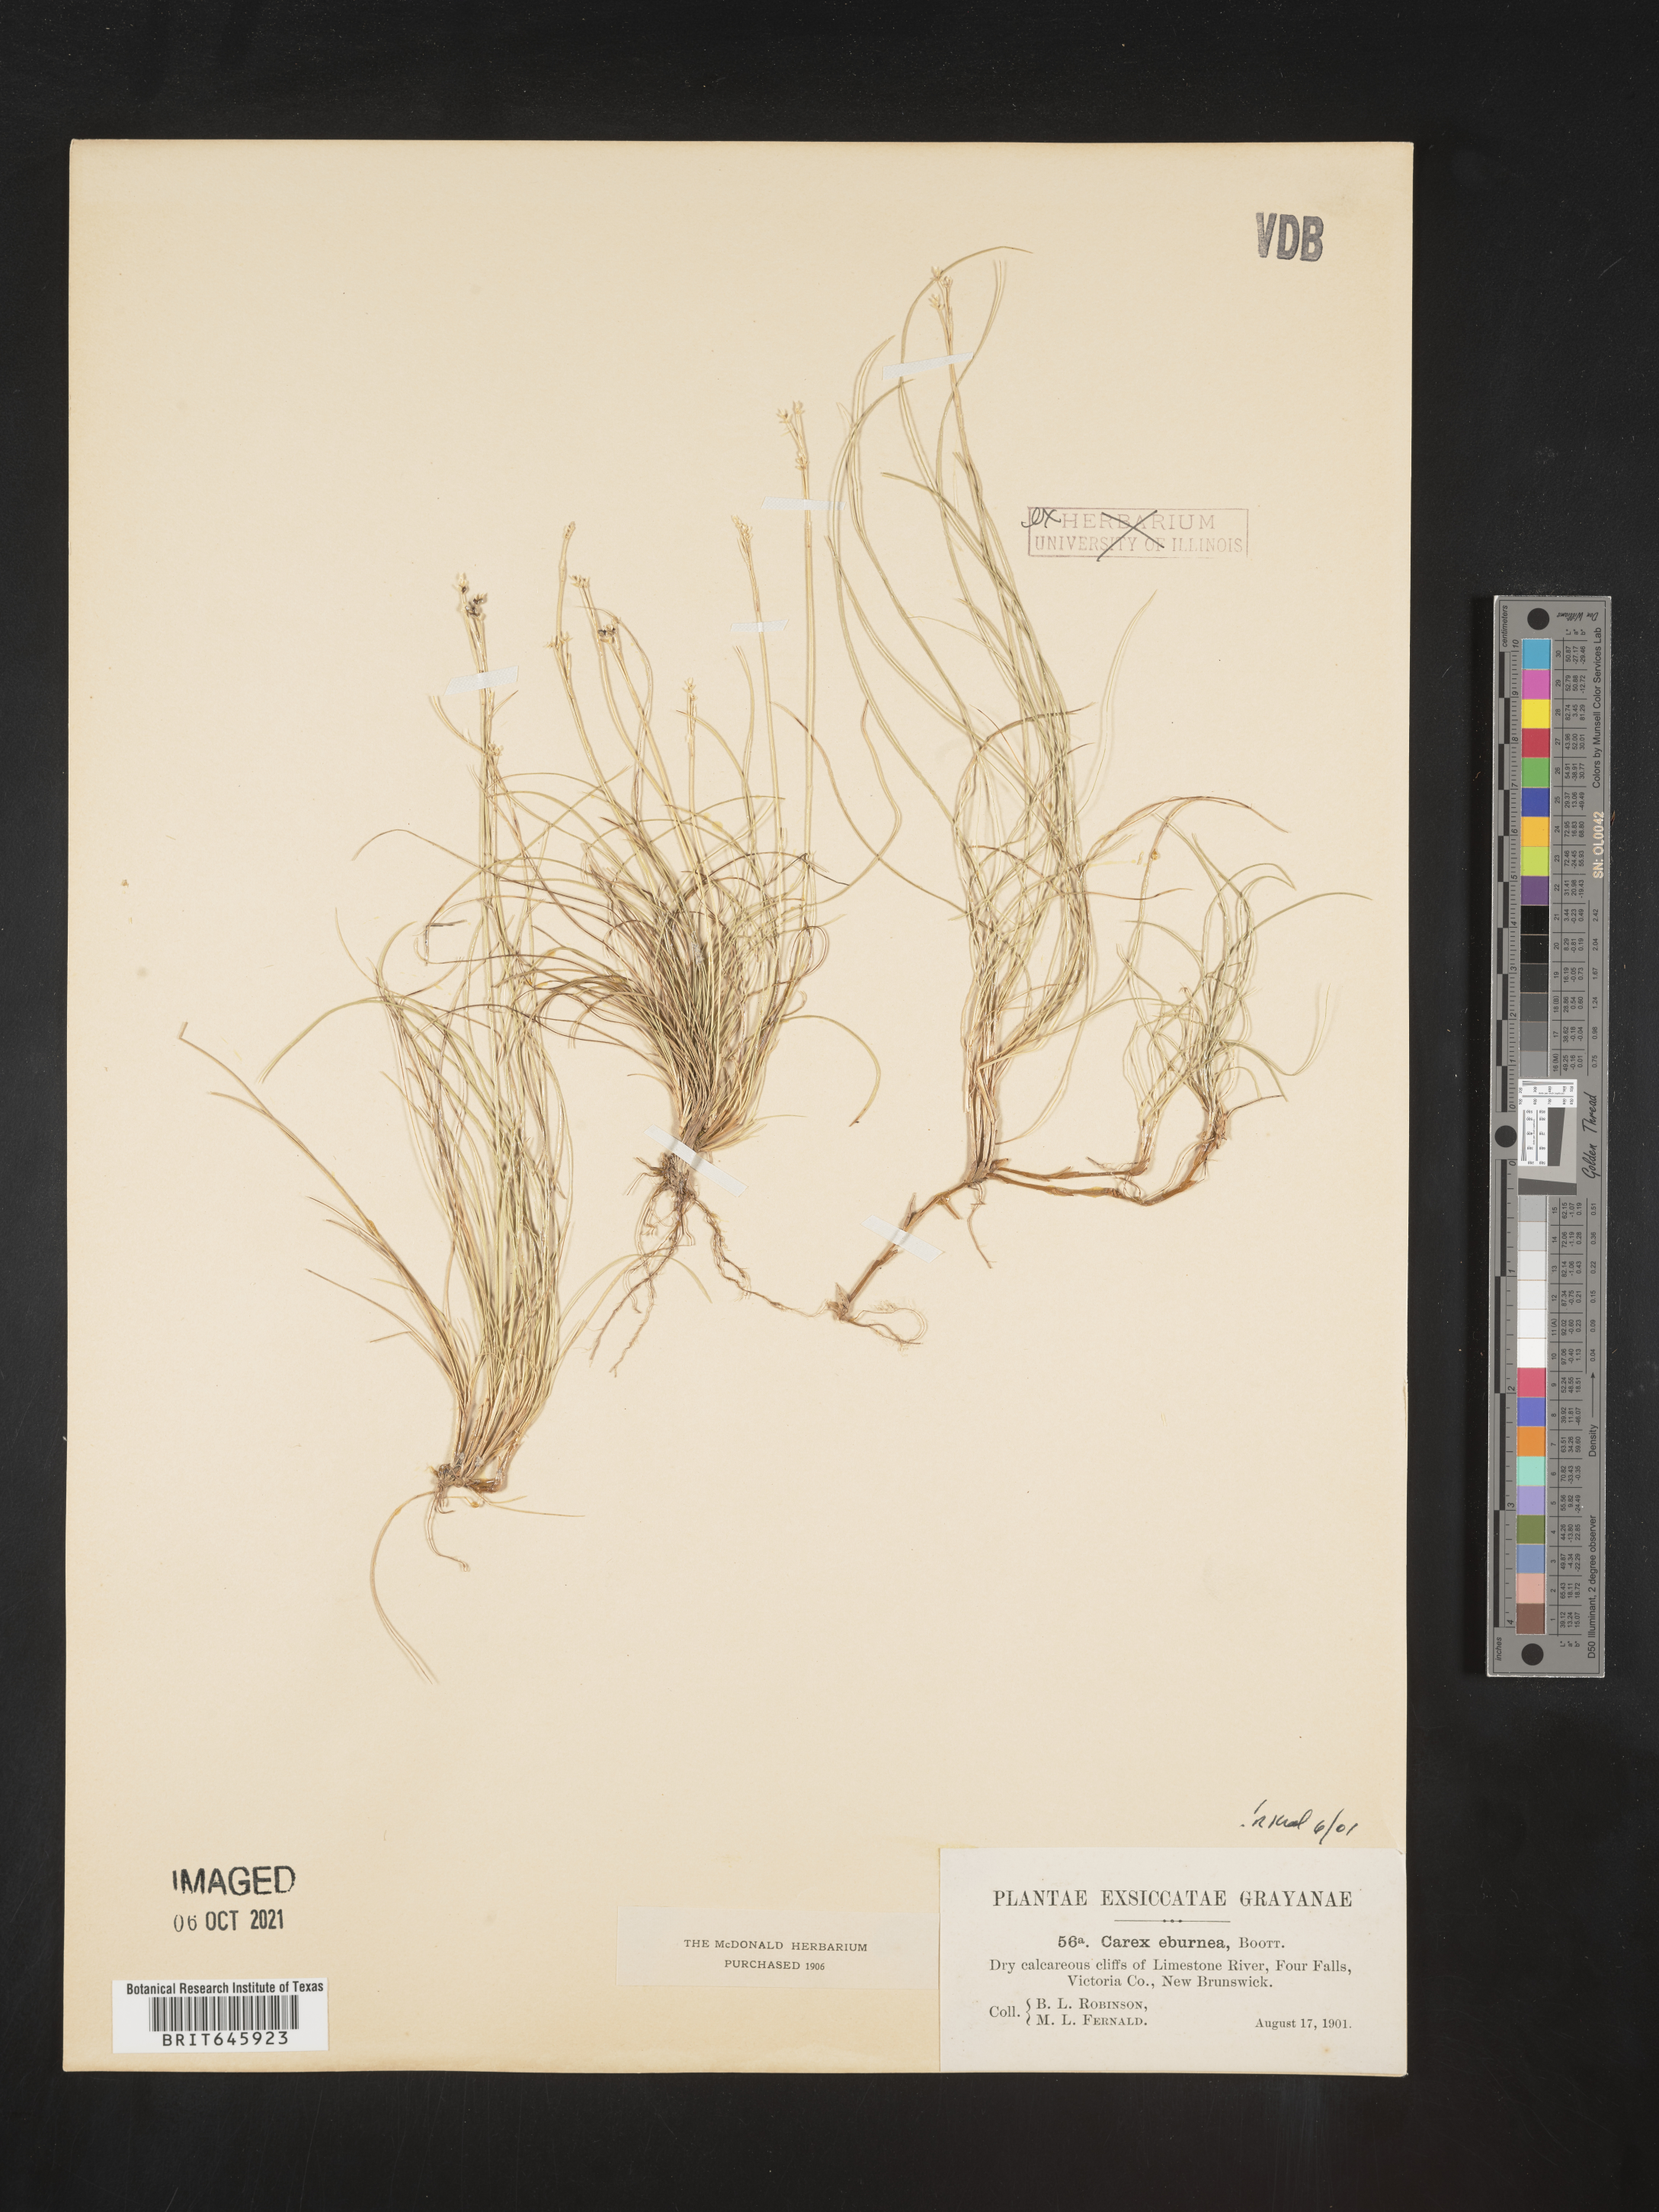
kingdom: Plantae
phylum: Tracheophyta
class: Liliopsida
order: Poales
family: Cyperaceae
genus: Carex
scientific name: Carex eburnea
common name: Bristle-leaved sedge
